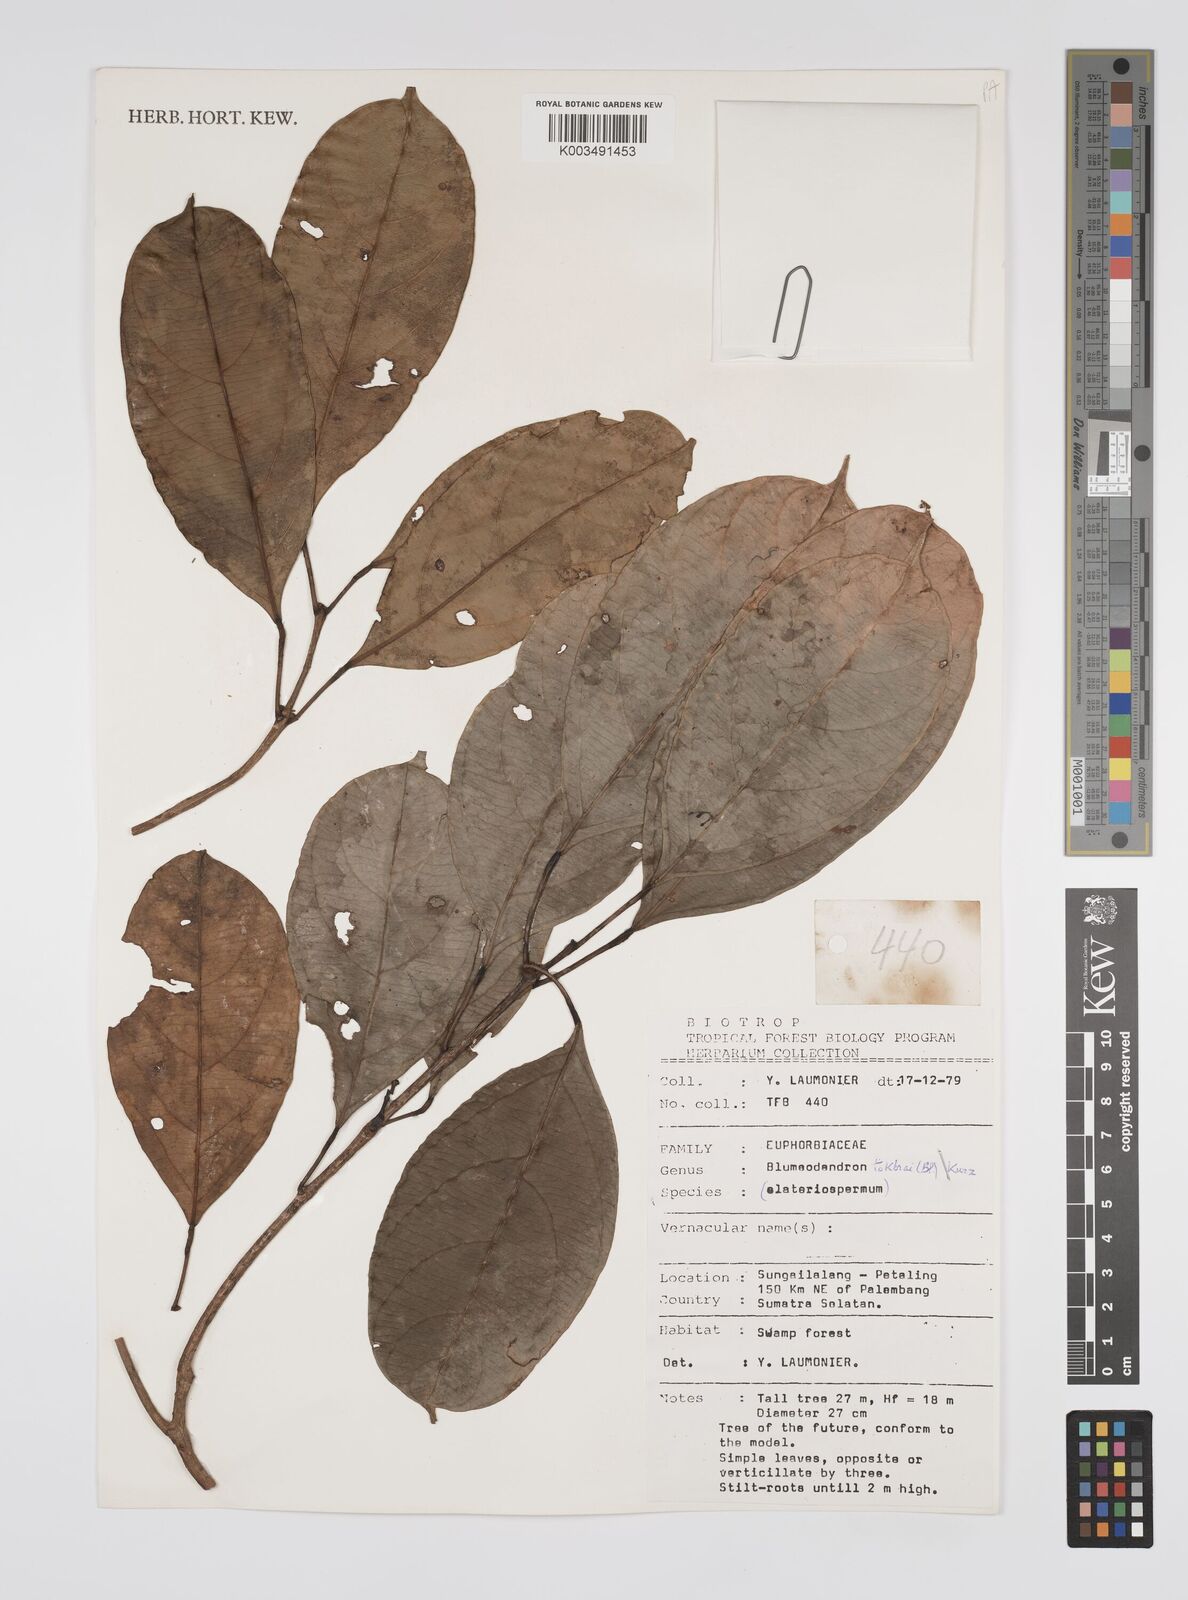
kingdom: Plantae
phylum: Tracheophyta
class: Magnoliopsida
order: Malpighiales
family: Euphorbiaceae
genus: Blumeodendron
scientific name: Blumeodendron tokbrai
